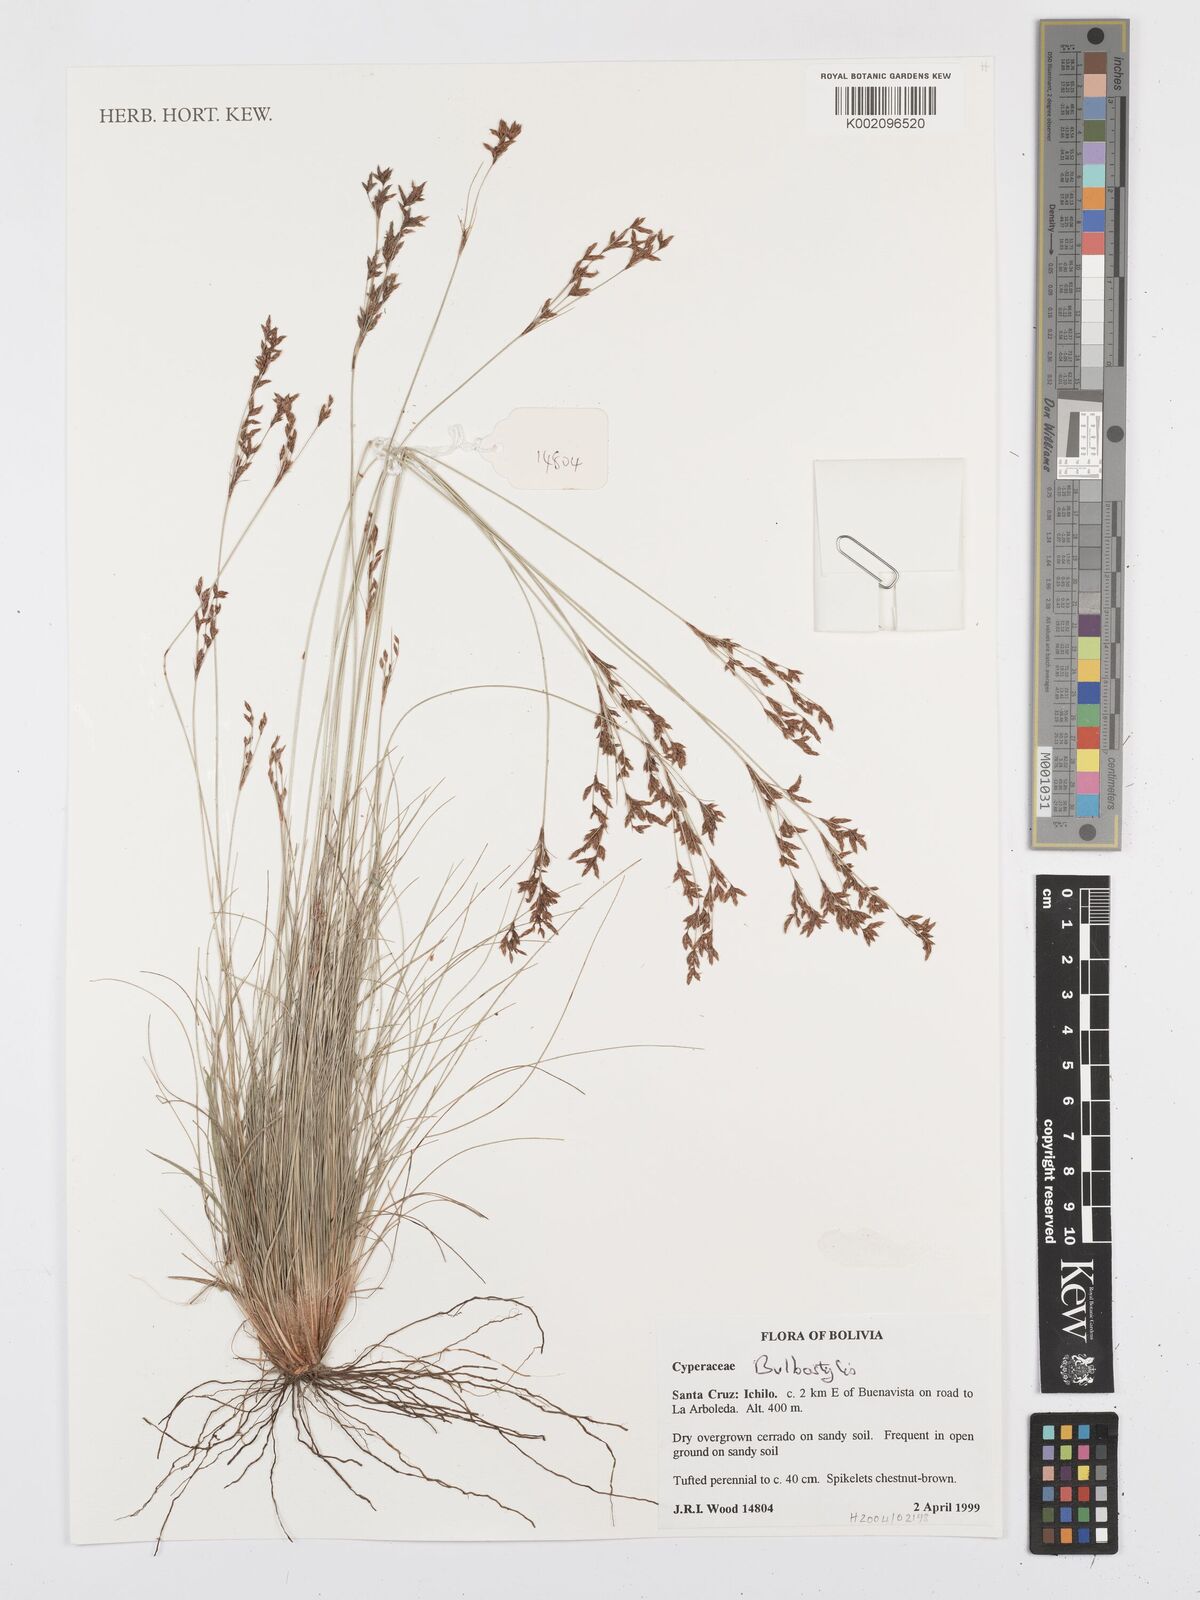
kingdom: Plantae
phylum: Tracheophyta
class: Liliopsida
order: Poales
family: Cyperaceae
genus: Bulbostylis
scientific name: Bulbostylis
